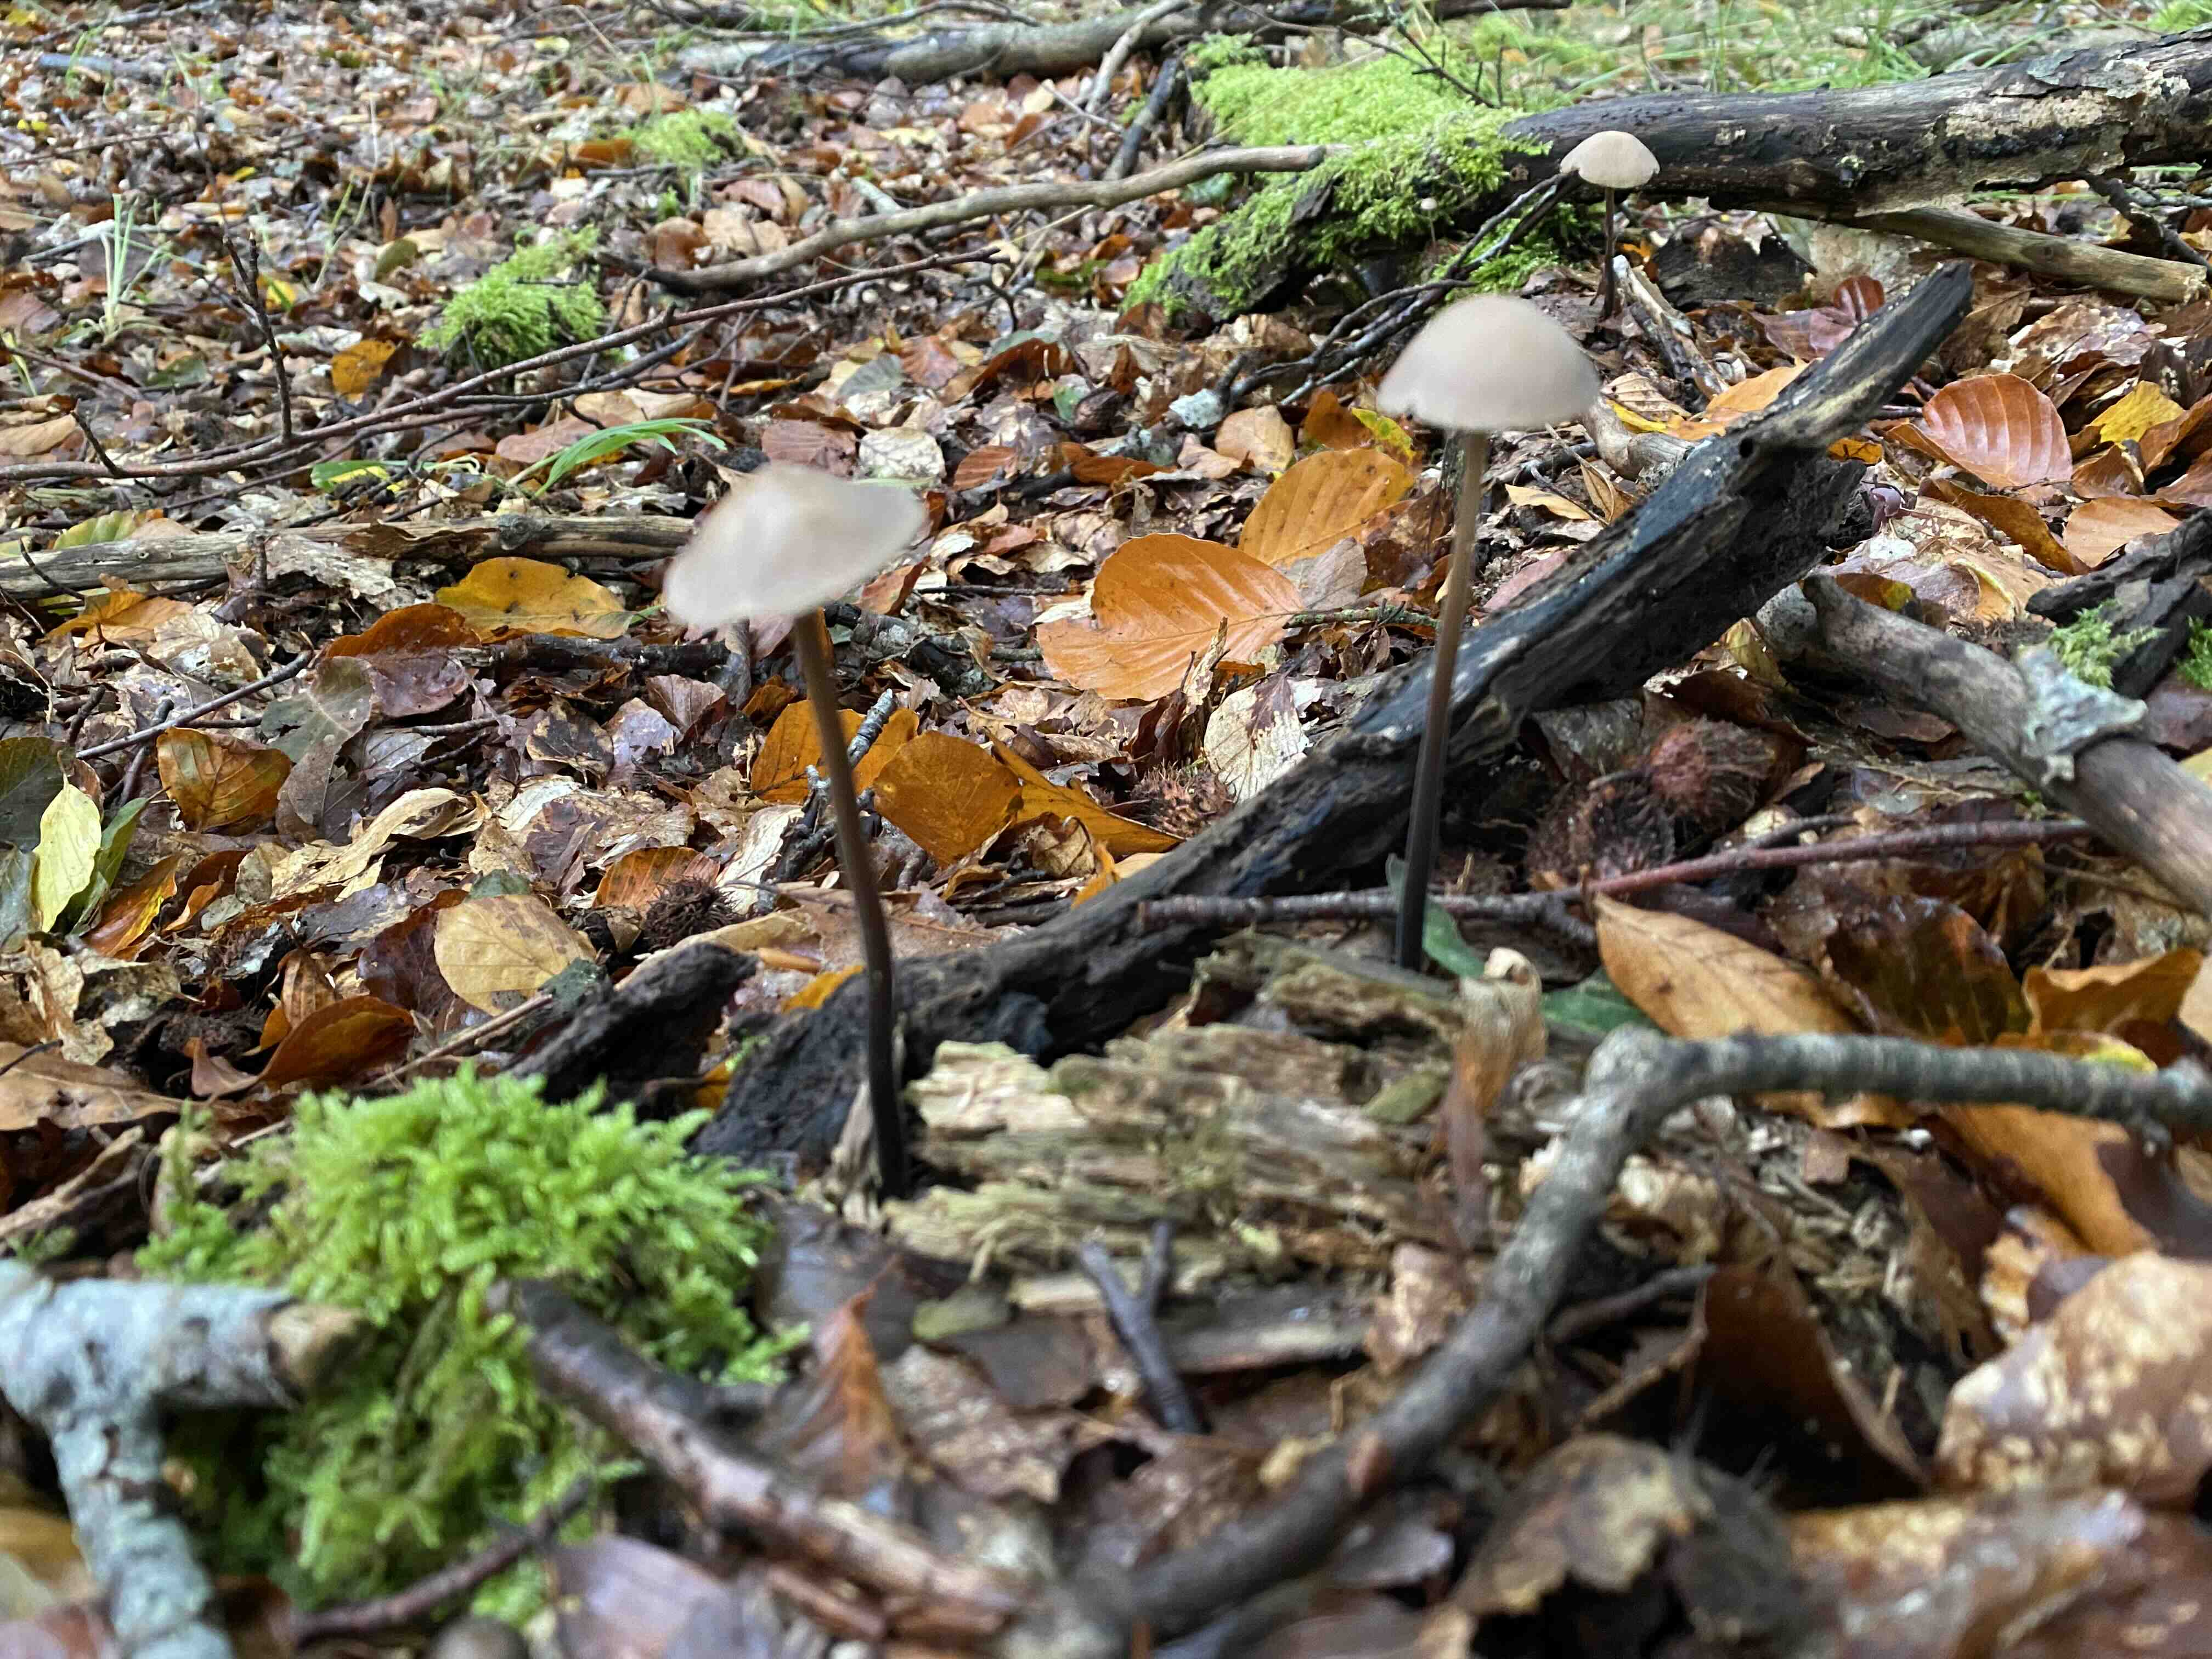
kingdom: Fungi
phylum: Basidiomycota
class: Agaricomycetes
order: Agaricales
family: Omphalotaceae
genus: Mycetinis
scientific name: Mycetinis alliaceus
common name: stor løghat
